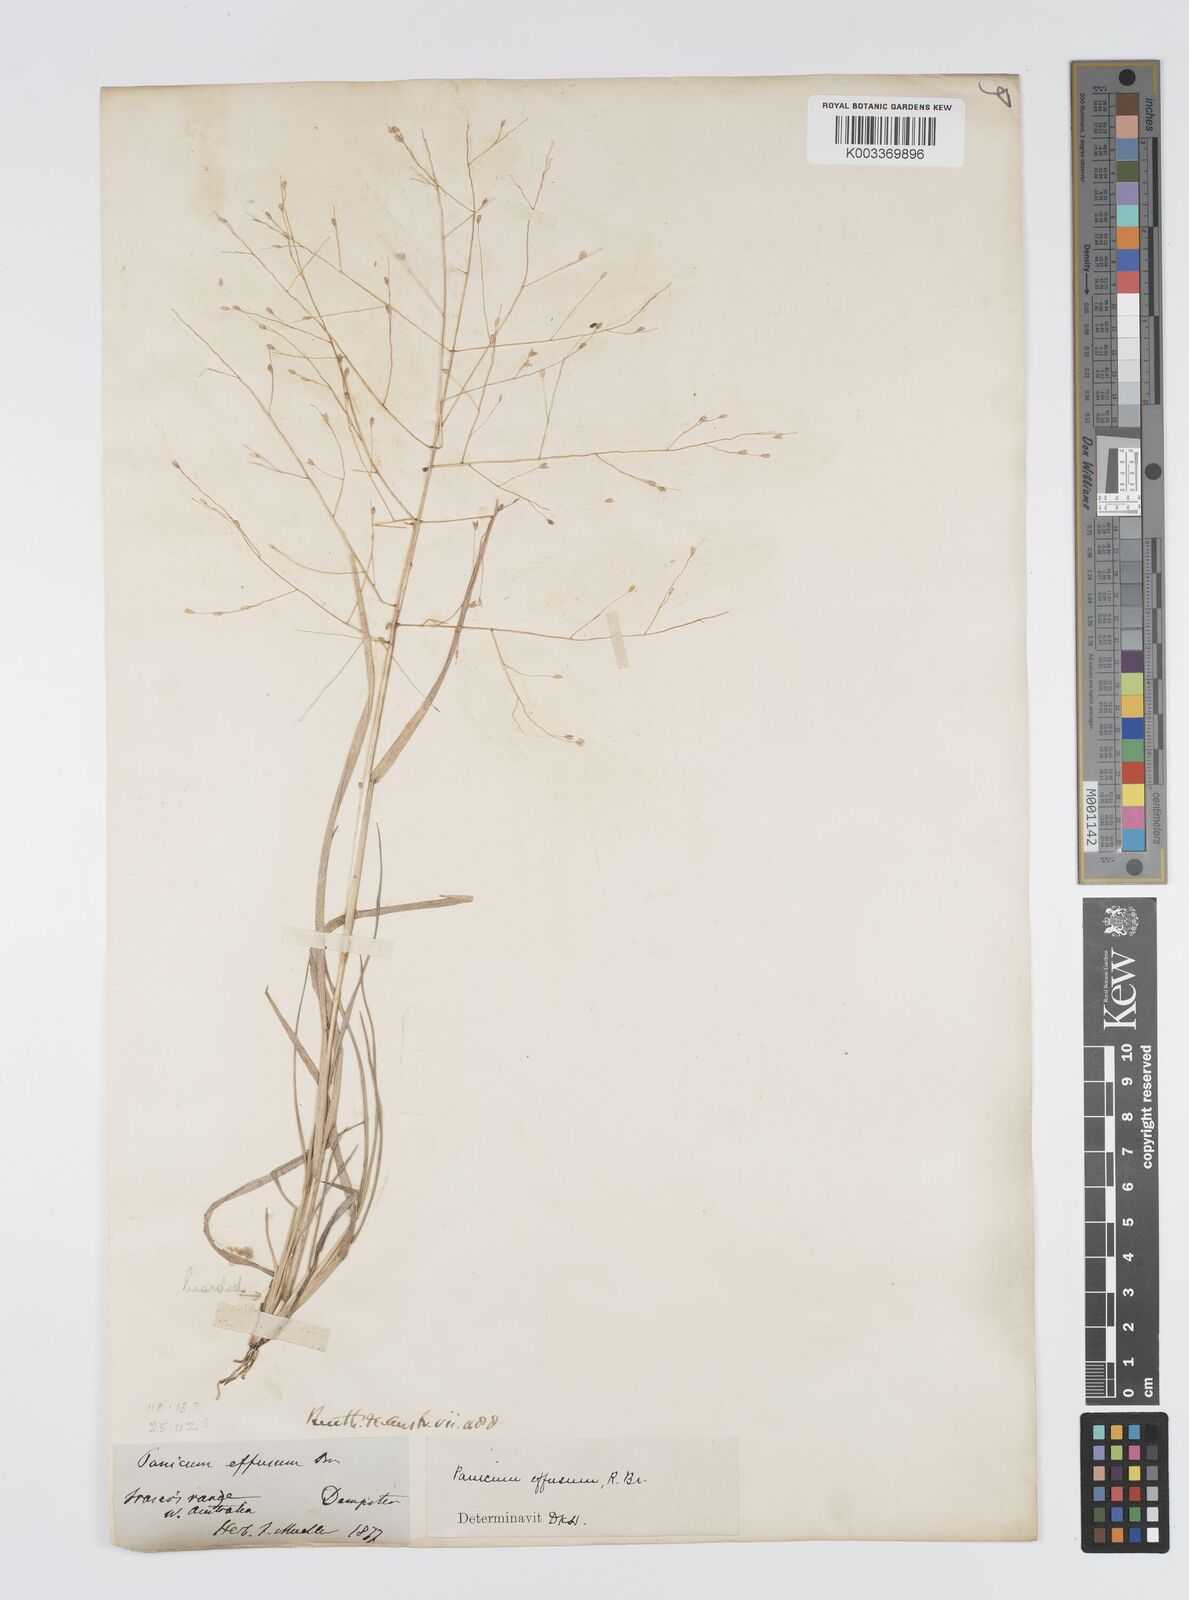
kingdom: Plantae
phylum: Tracheophyta
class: Liliopsida
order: Poales
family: Poaceae
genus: Panicum
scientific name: Panicum effusum
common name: Hairy panic grass
